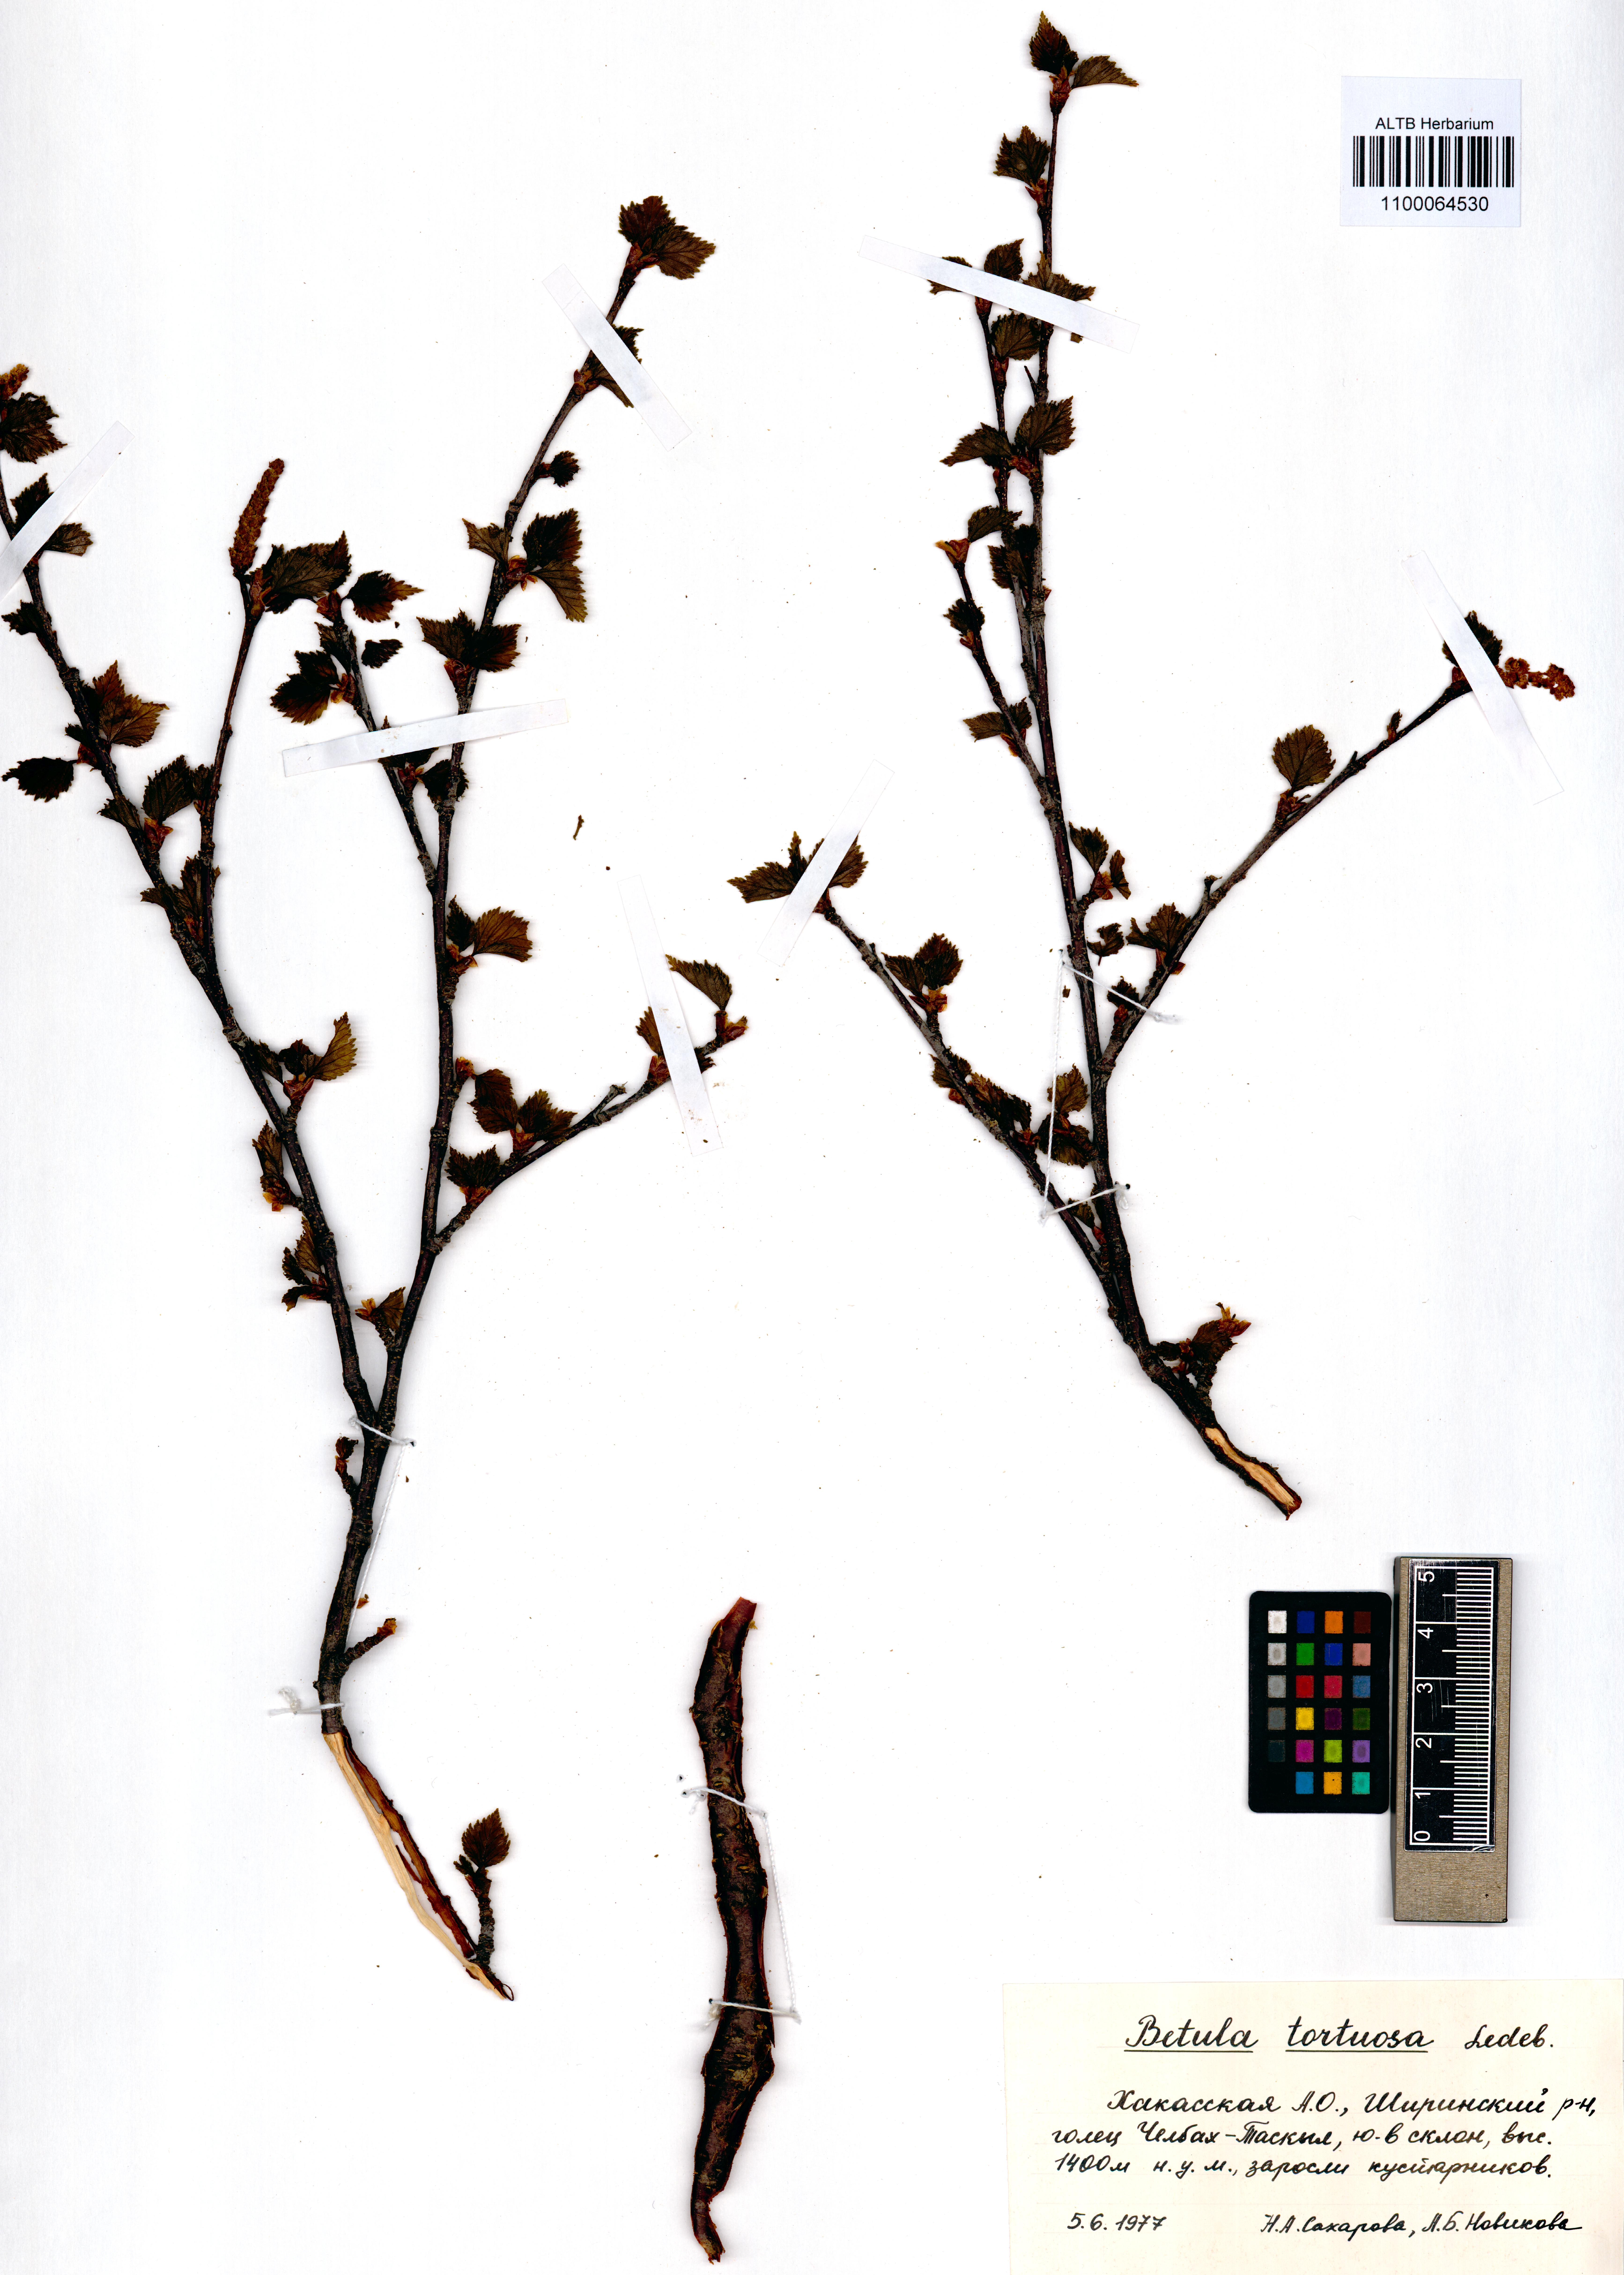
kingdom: Plantae
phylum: Tracheophyta
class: Magnoliopsida
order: Fagales
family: Betulaceae
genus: Betula
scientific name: Betula pubescens
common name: Downy birch
